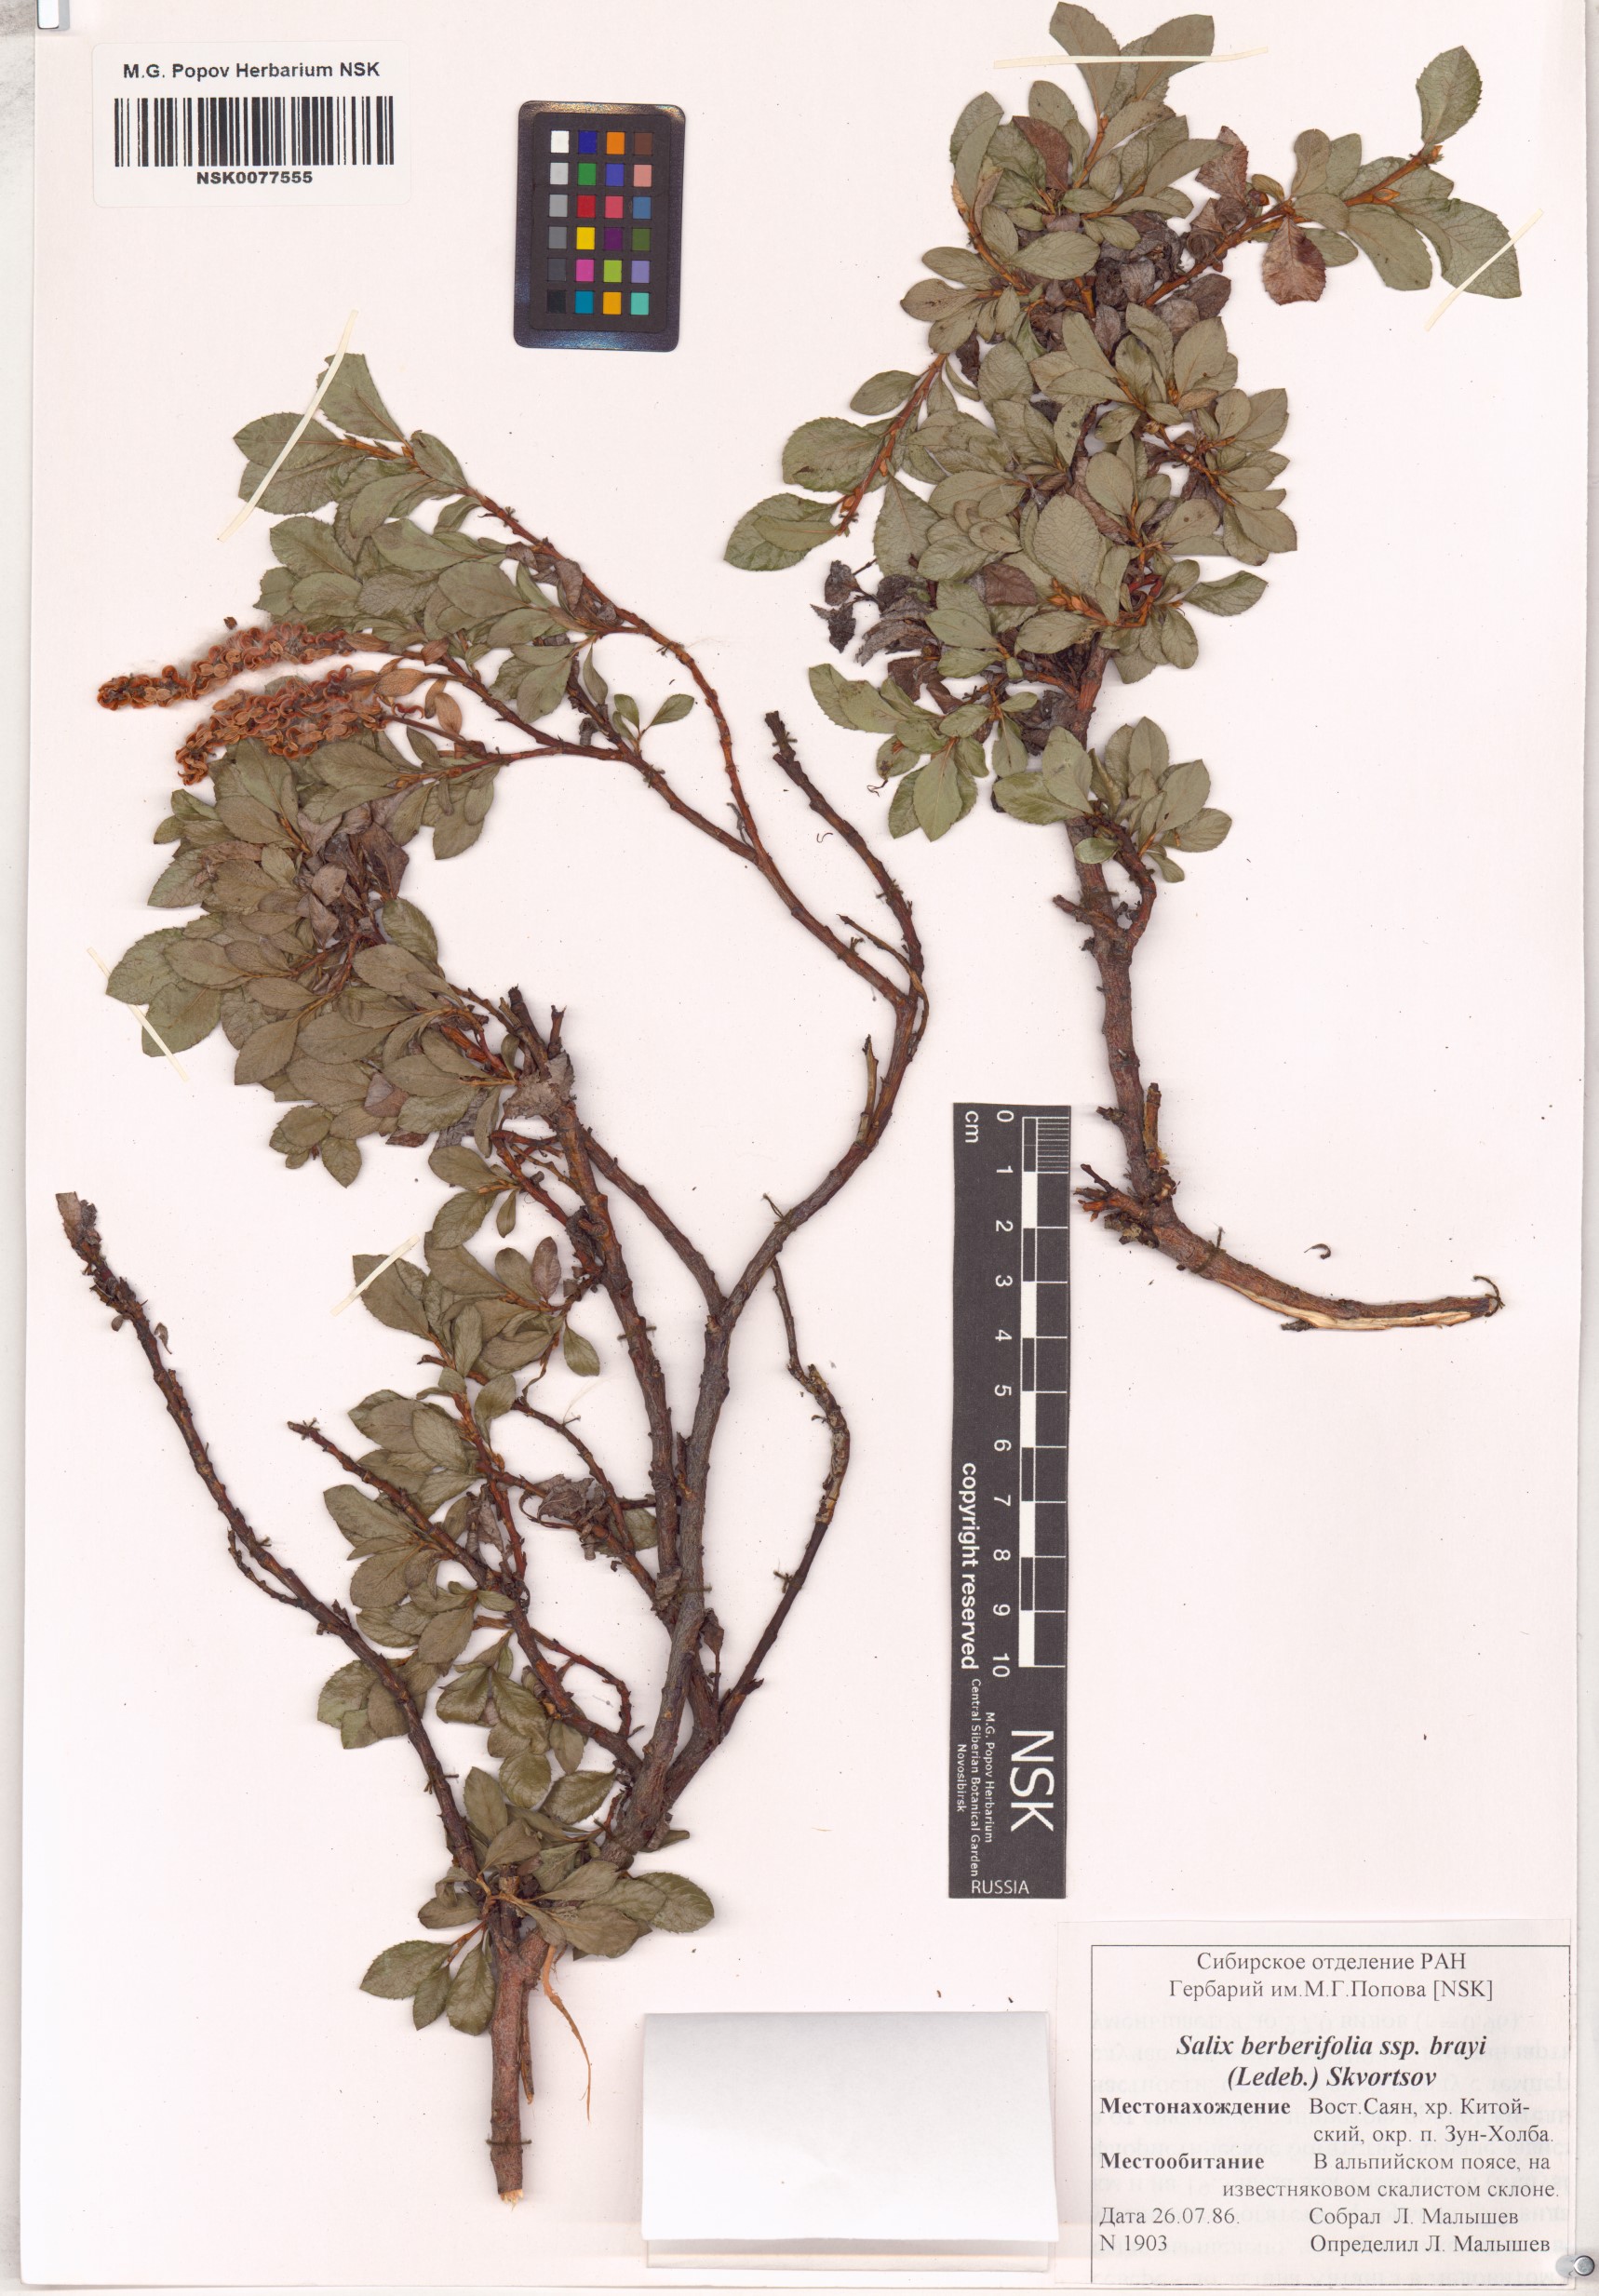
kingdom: Plantae
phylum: Tracheophyta
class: Magnoliopsida
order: Malpighiales
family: Salicaceae
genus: Salix
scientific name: Salix berberifolia
